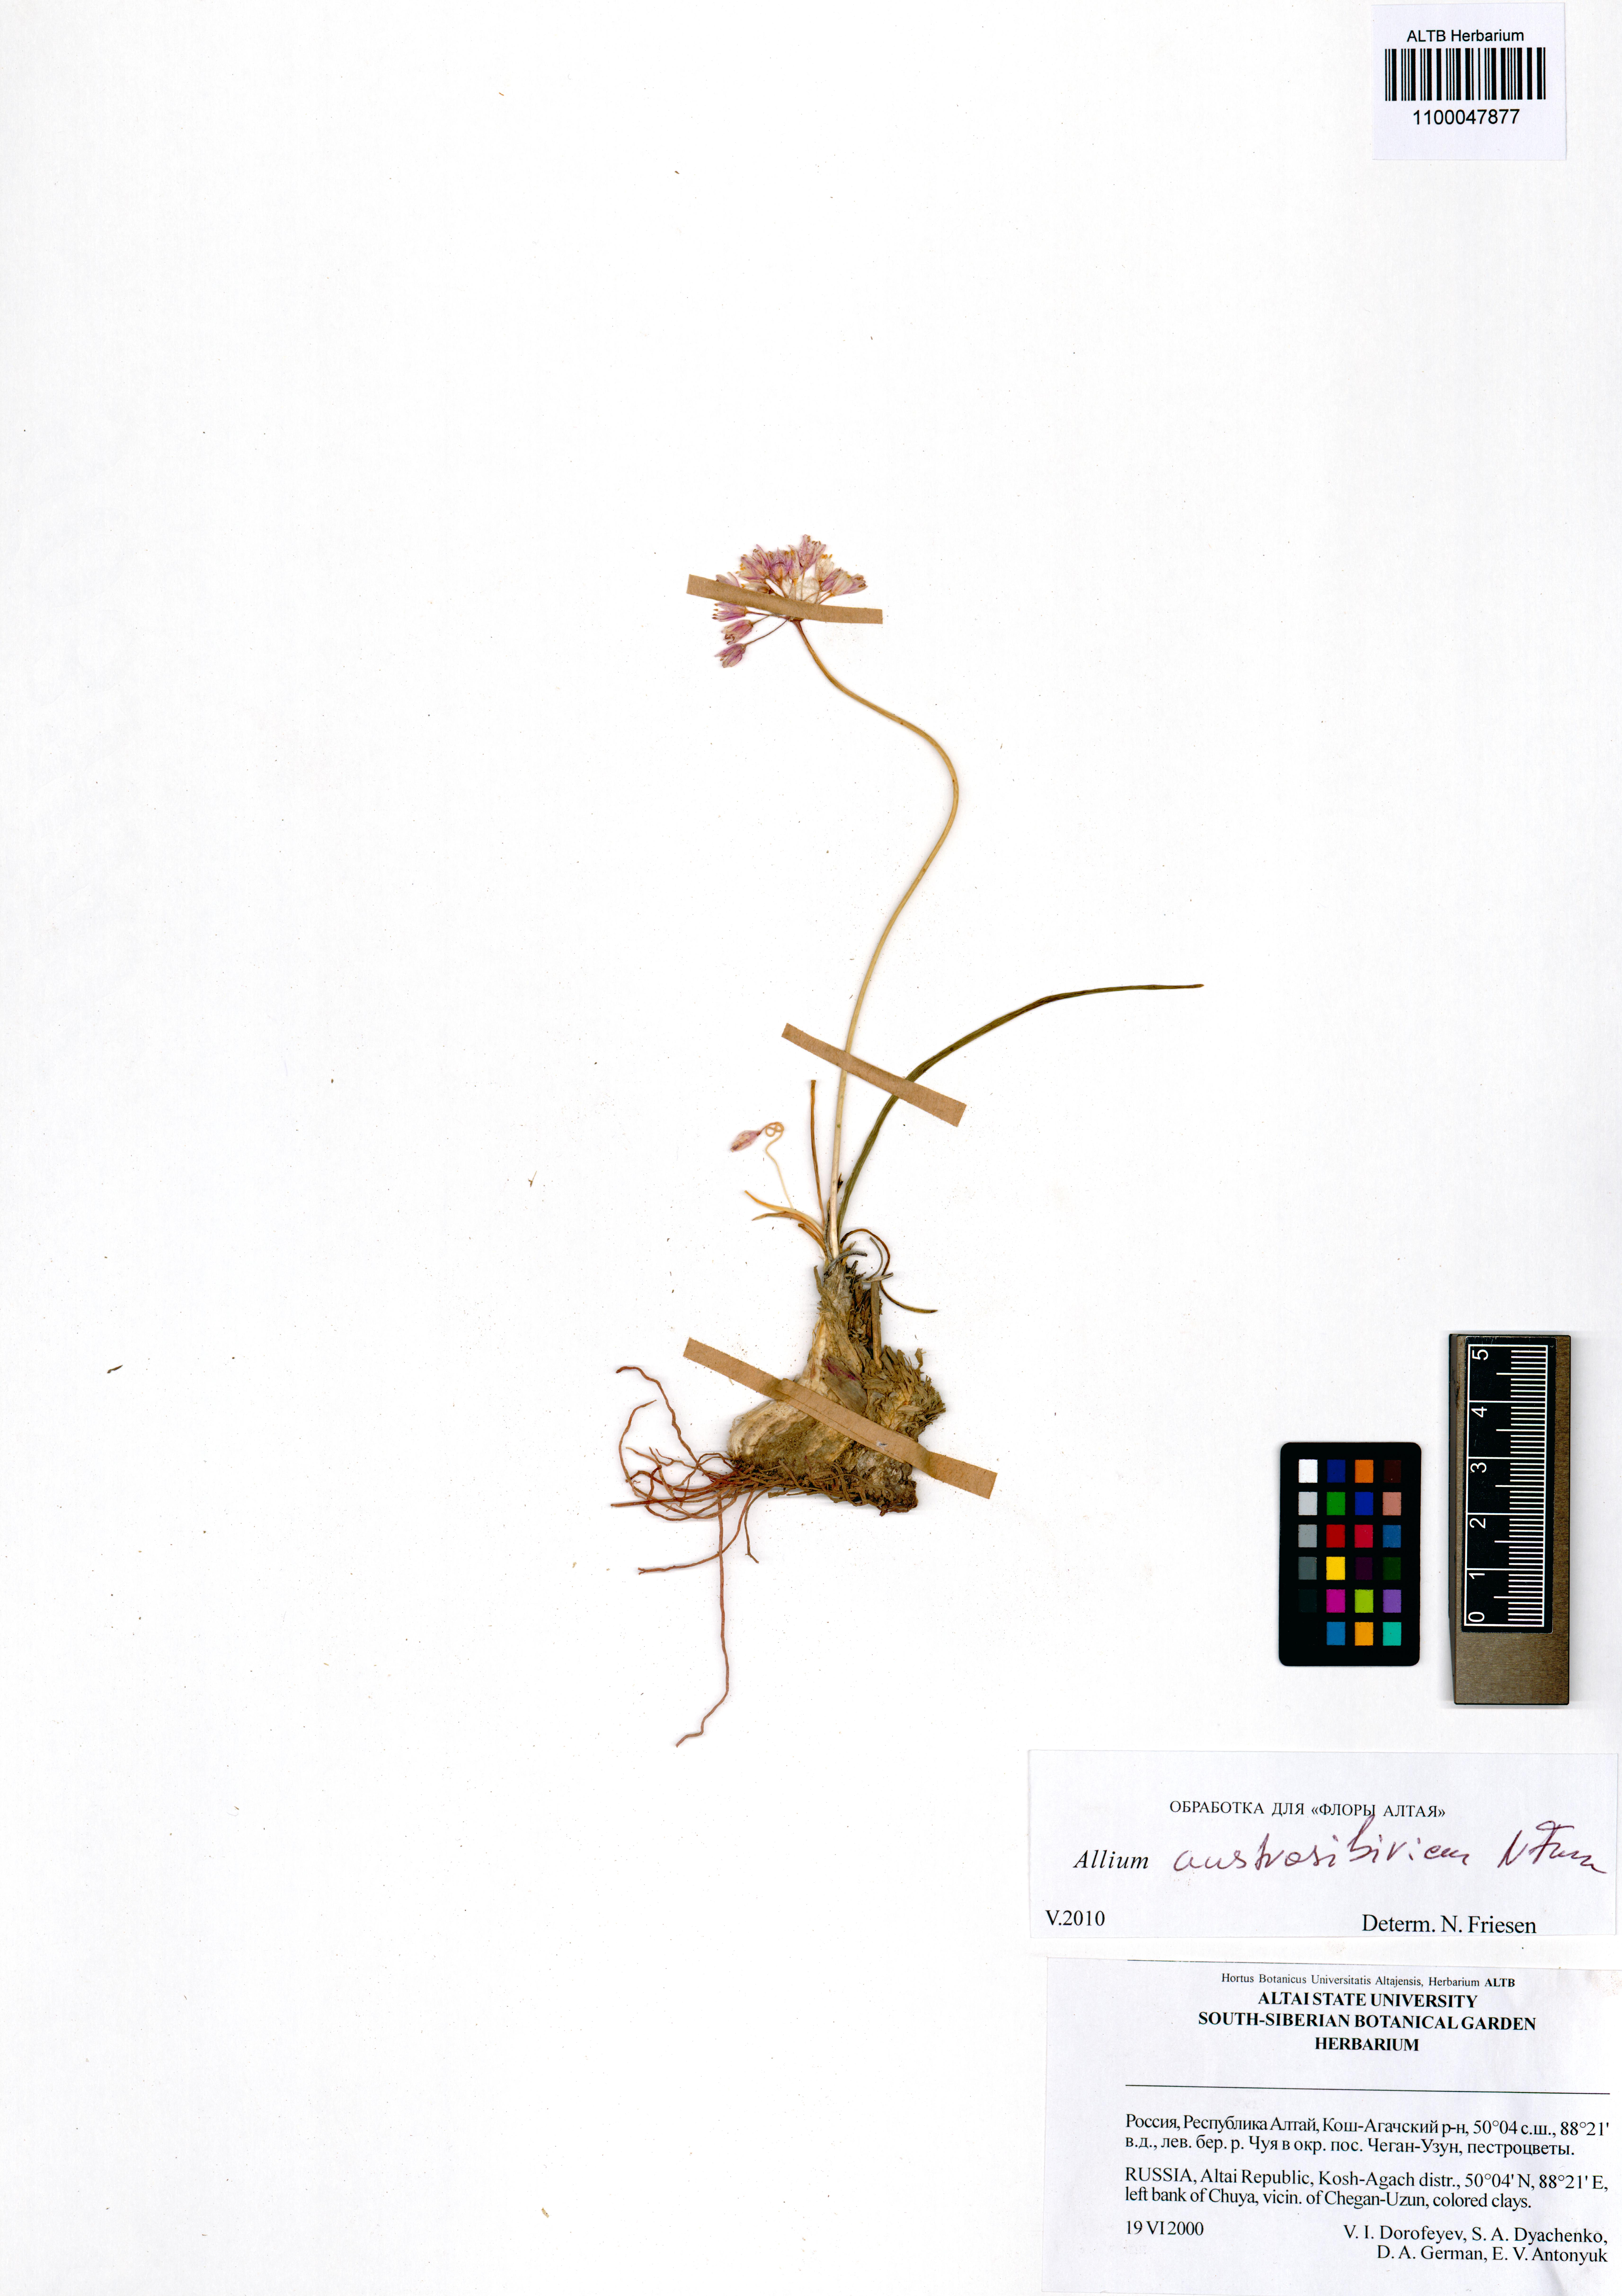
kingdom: Plantae
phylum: Tracheophyta
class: Liliopsida
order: Asparagales
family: Amaryllidaceae
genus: Allium
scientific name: Allium austrosibiricum
